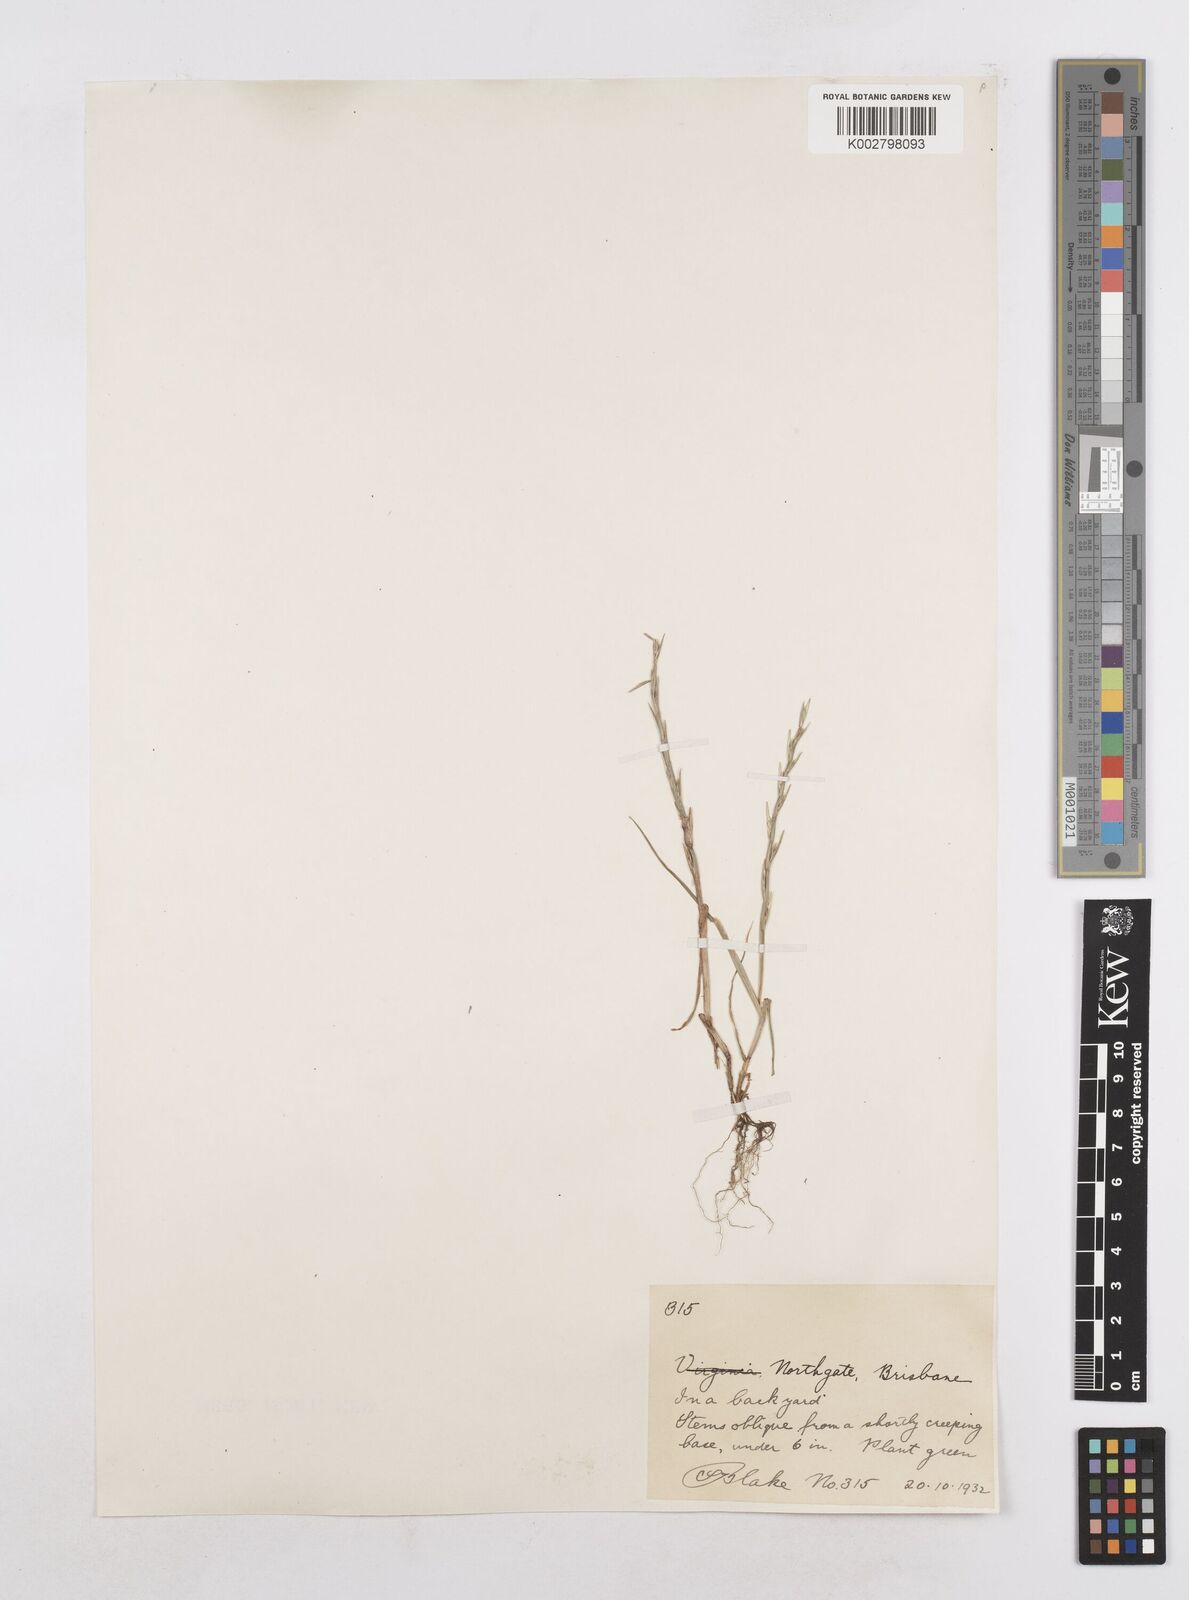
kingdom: Plantae
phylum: Tracheophyta
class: Liliopsida
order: Poales
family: Poaceae
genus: Lolium
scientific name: Lolium
